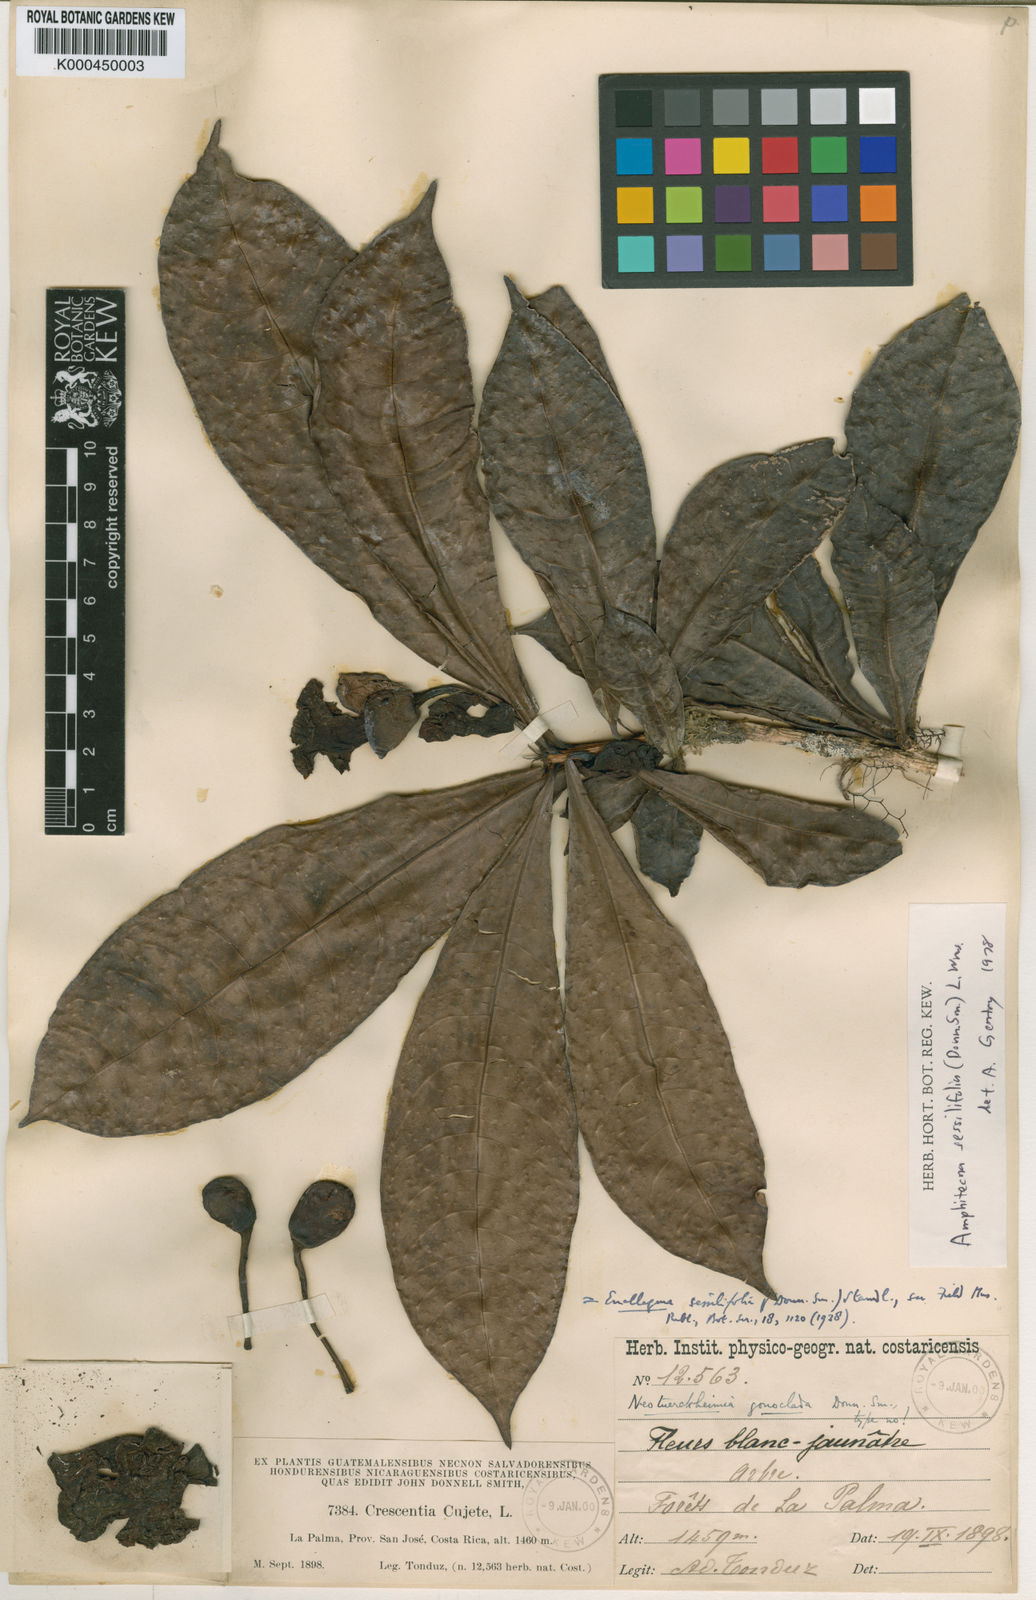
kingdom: Plantae
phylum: Tracheophyta
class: Magnoliopsida
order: Lamiales
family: Bignoniaceae
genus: Amphitecna
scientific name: Amphitecna sessilifolia
